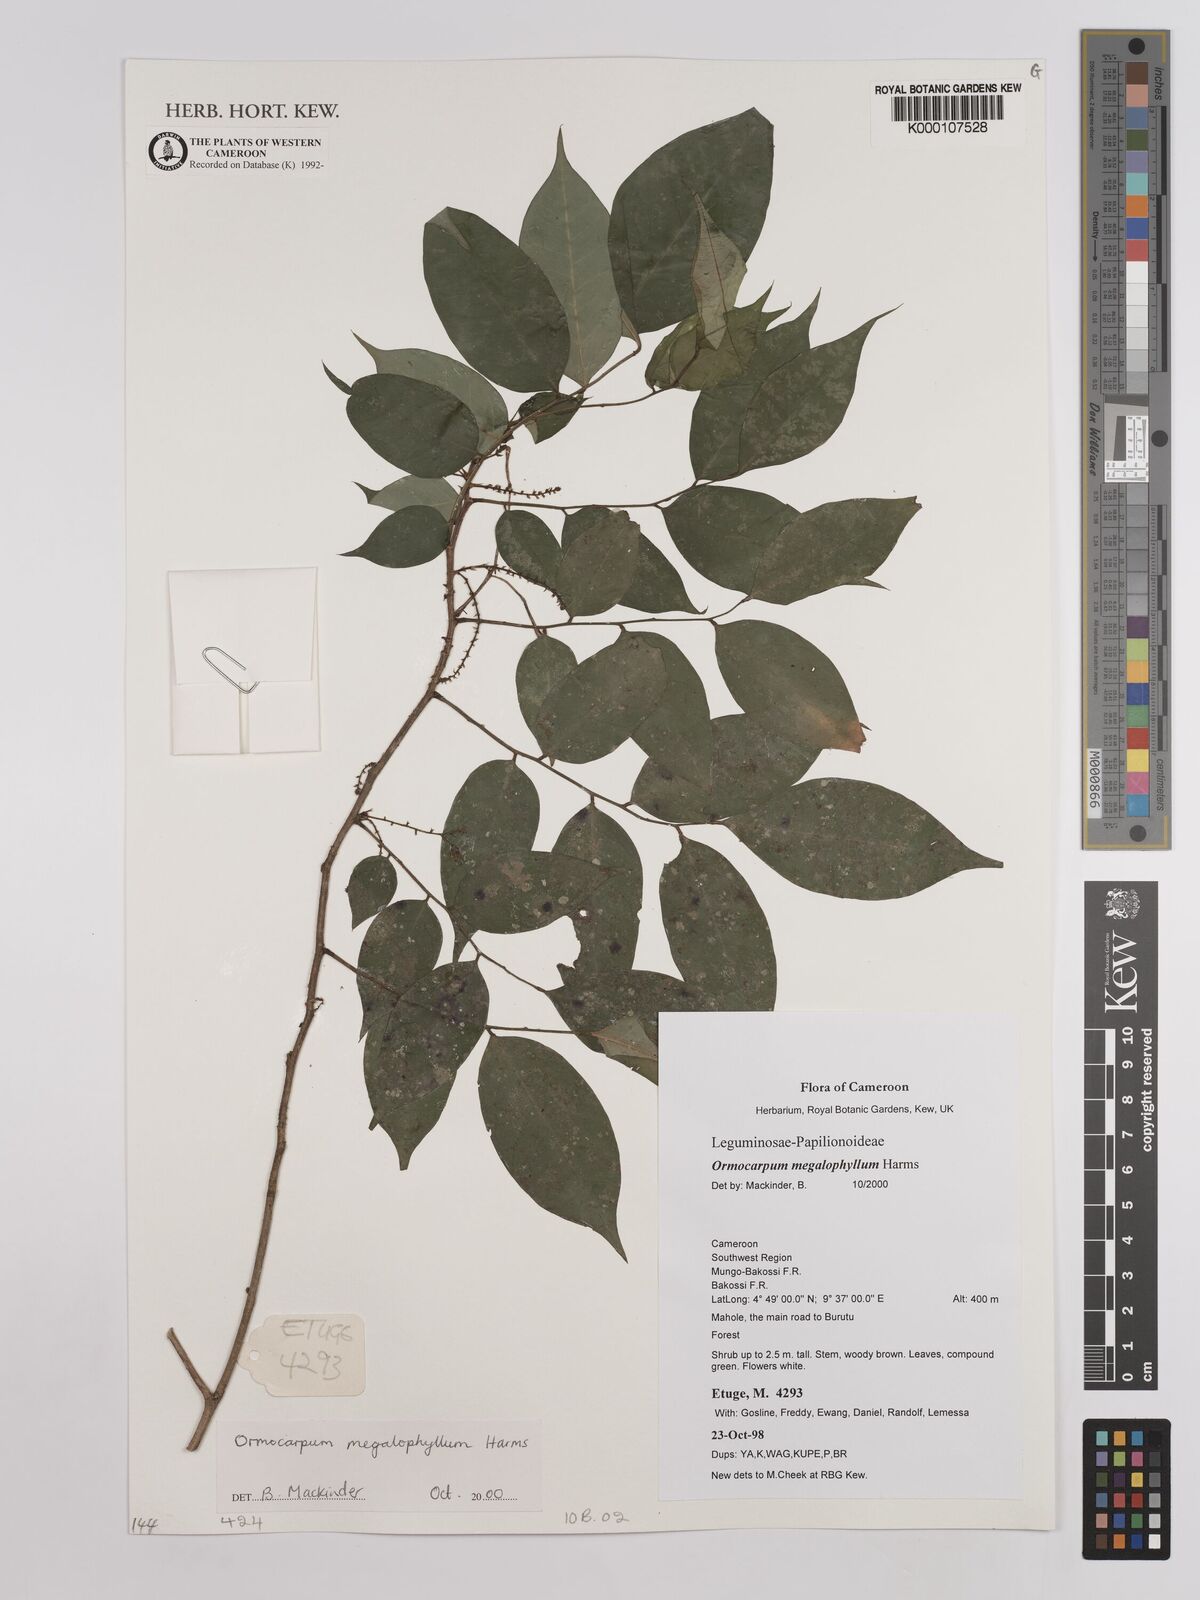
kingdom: Plantae
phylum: Tracheophyta
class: Magnoliopsida
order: Fabales
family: Fabaceae
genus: Ormocarpum
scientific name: Ormocarpum megalophyllum
